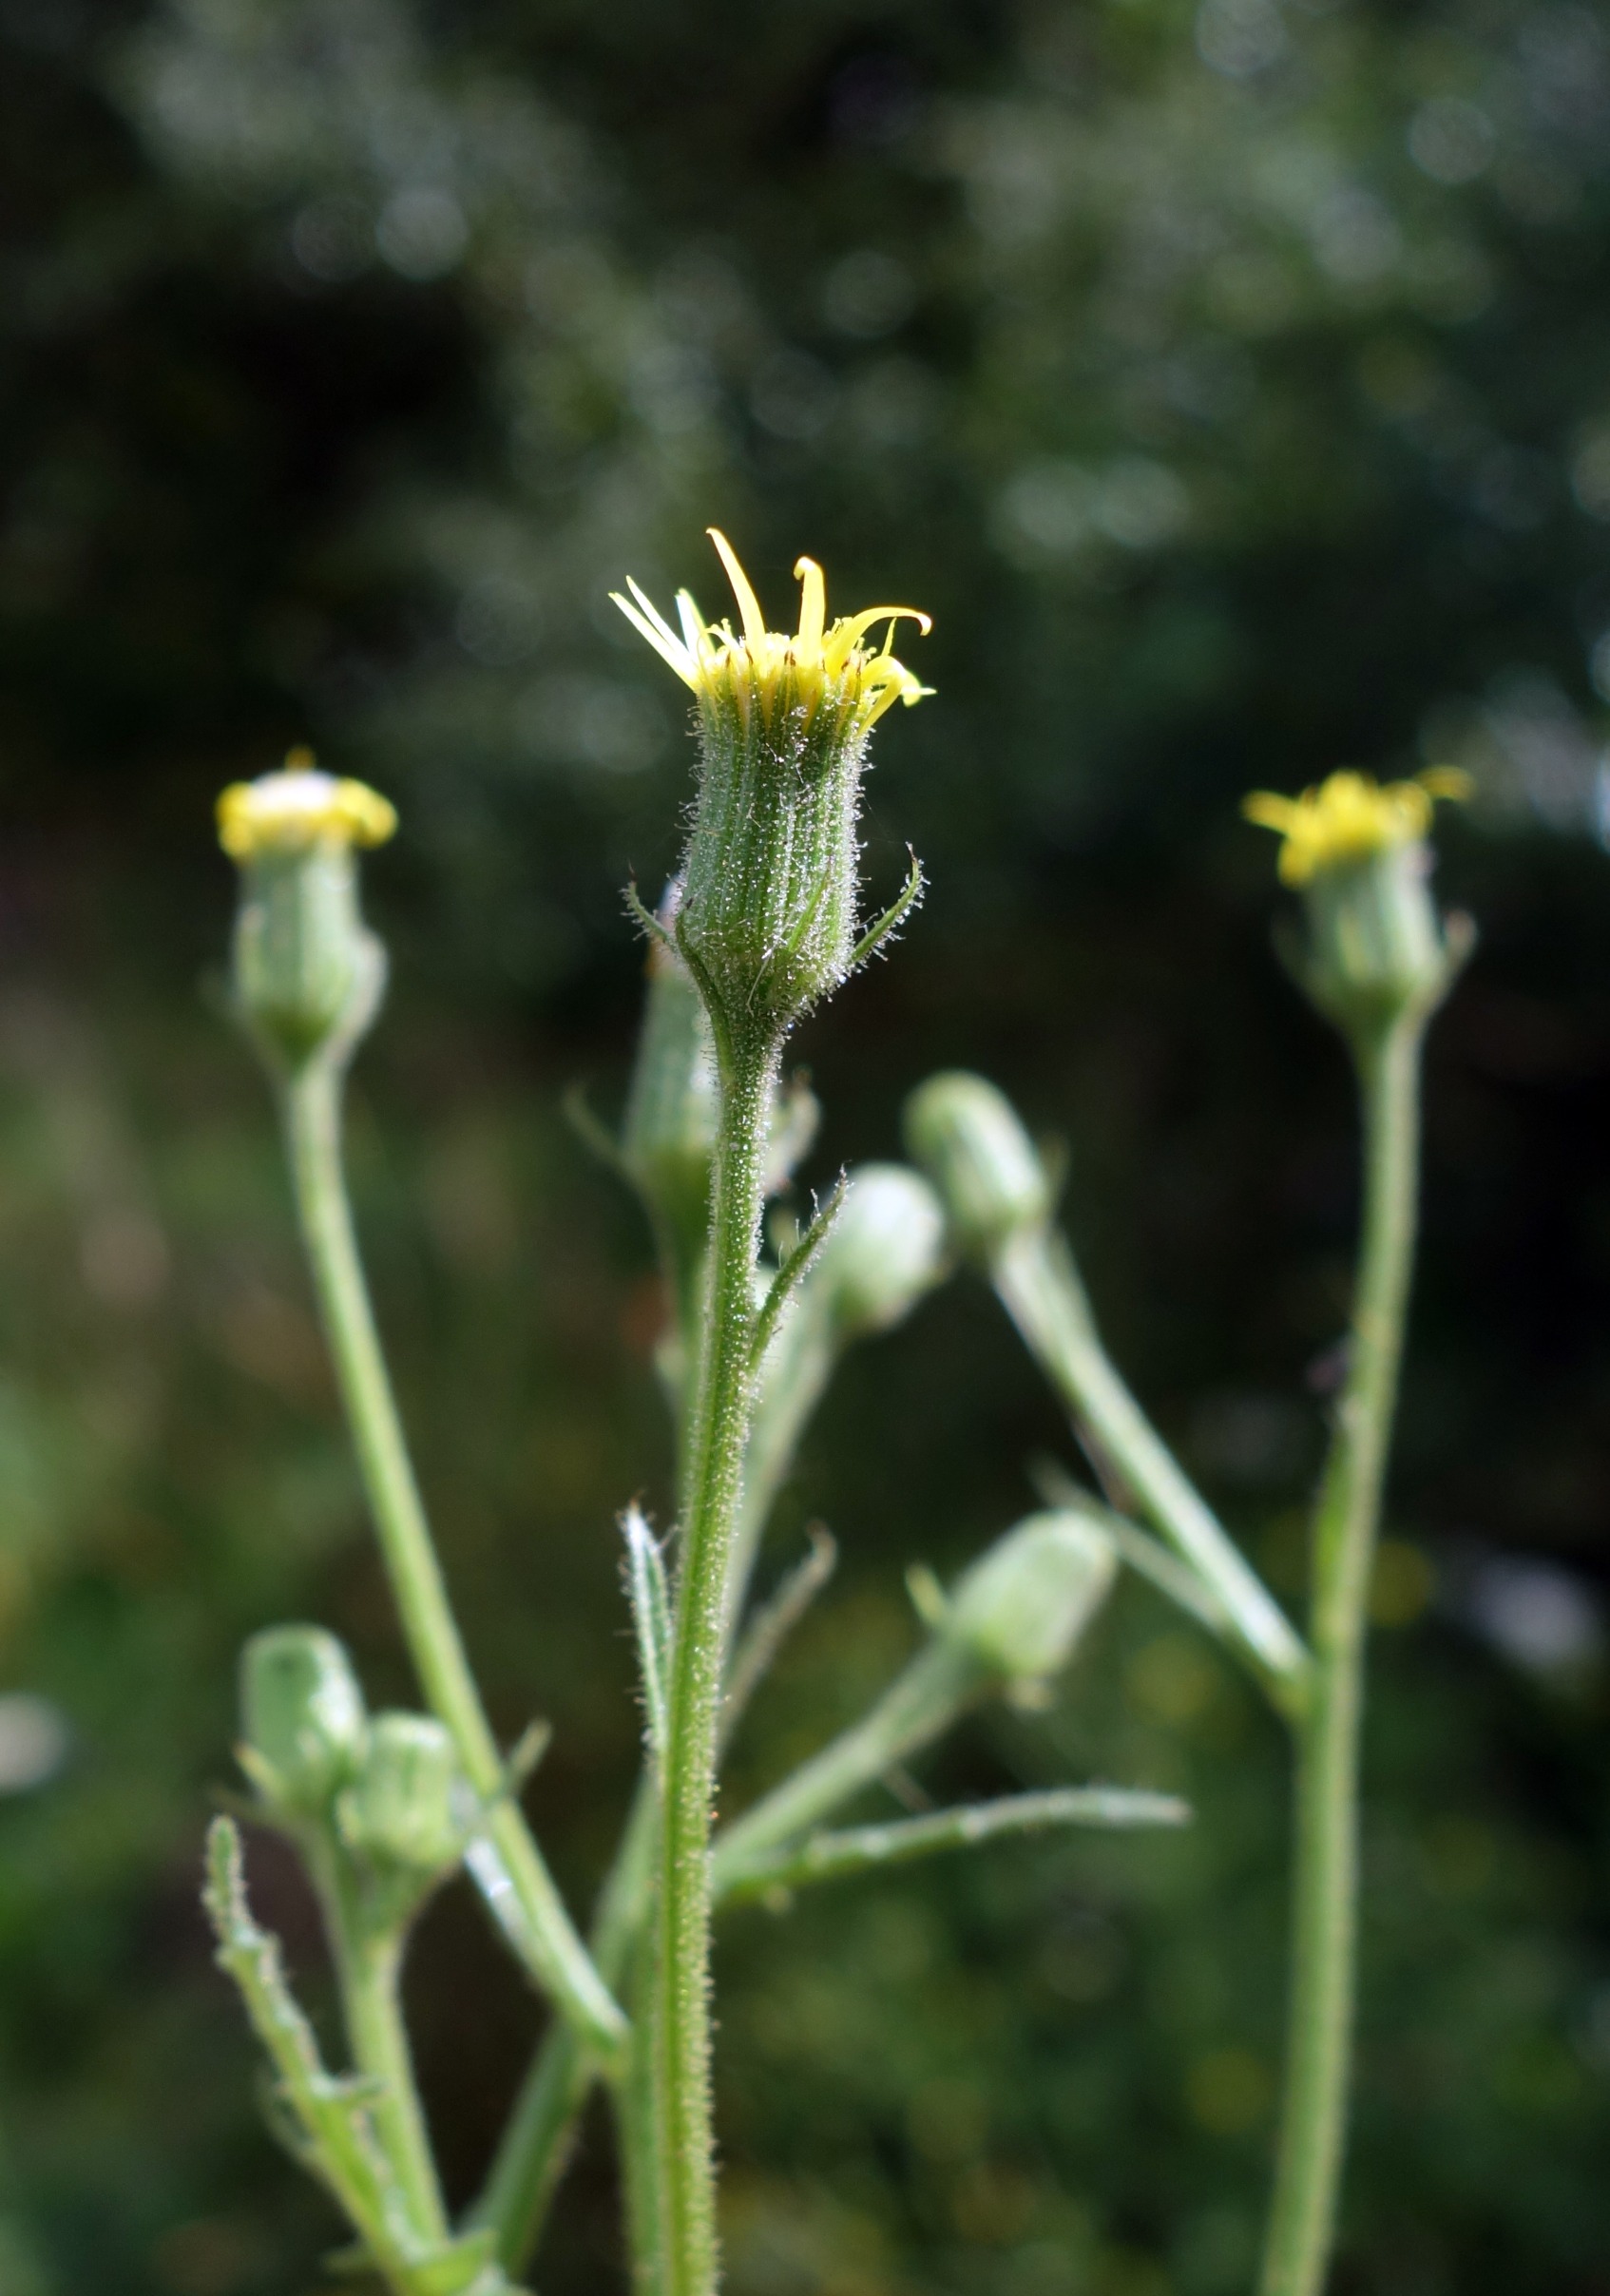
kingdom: Plantae
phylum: Tracheophyta
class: Magnoliopsida
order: Asterales
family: Asteraceae
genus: Senecio
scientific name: Senecio viscosus
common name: Klæbrig brandbæger
